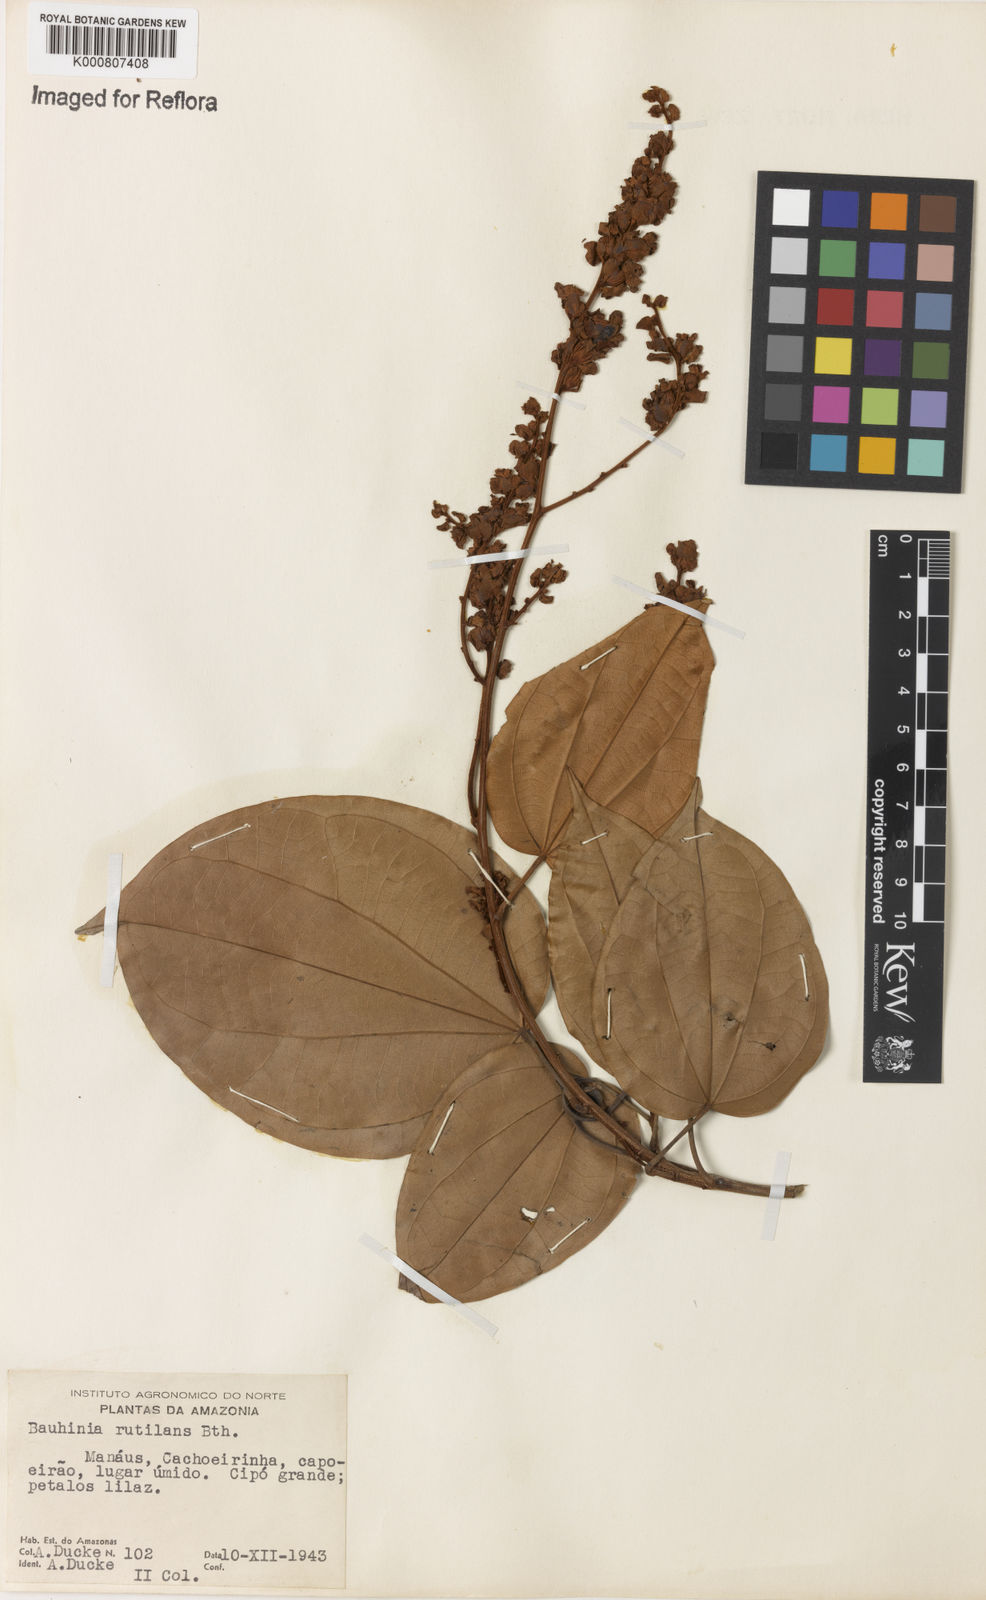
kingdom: Plantae
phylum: Tracheophyta
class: Magnoliopsida
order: Fabales
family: Fabaceae
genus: Schnella
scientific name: Schnella rutilans
